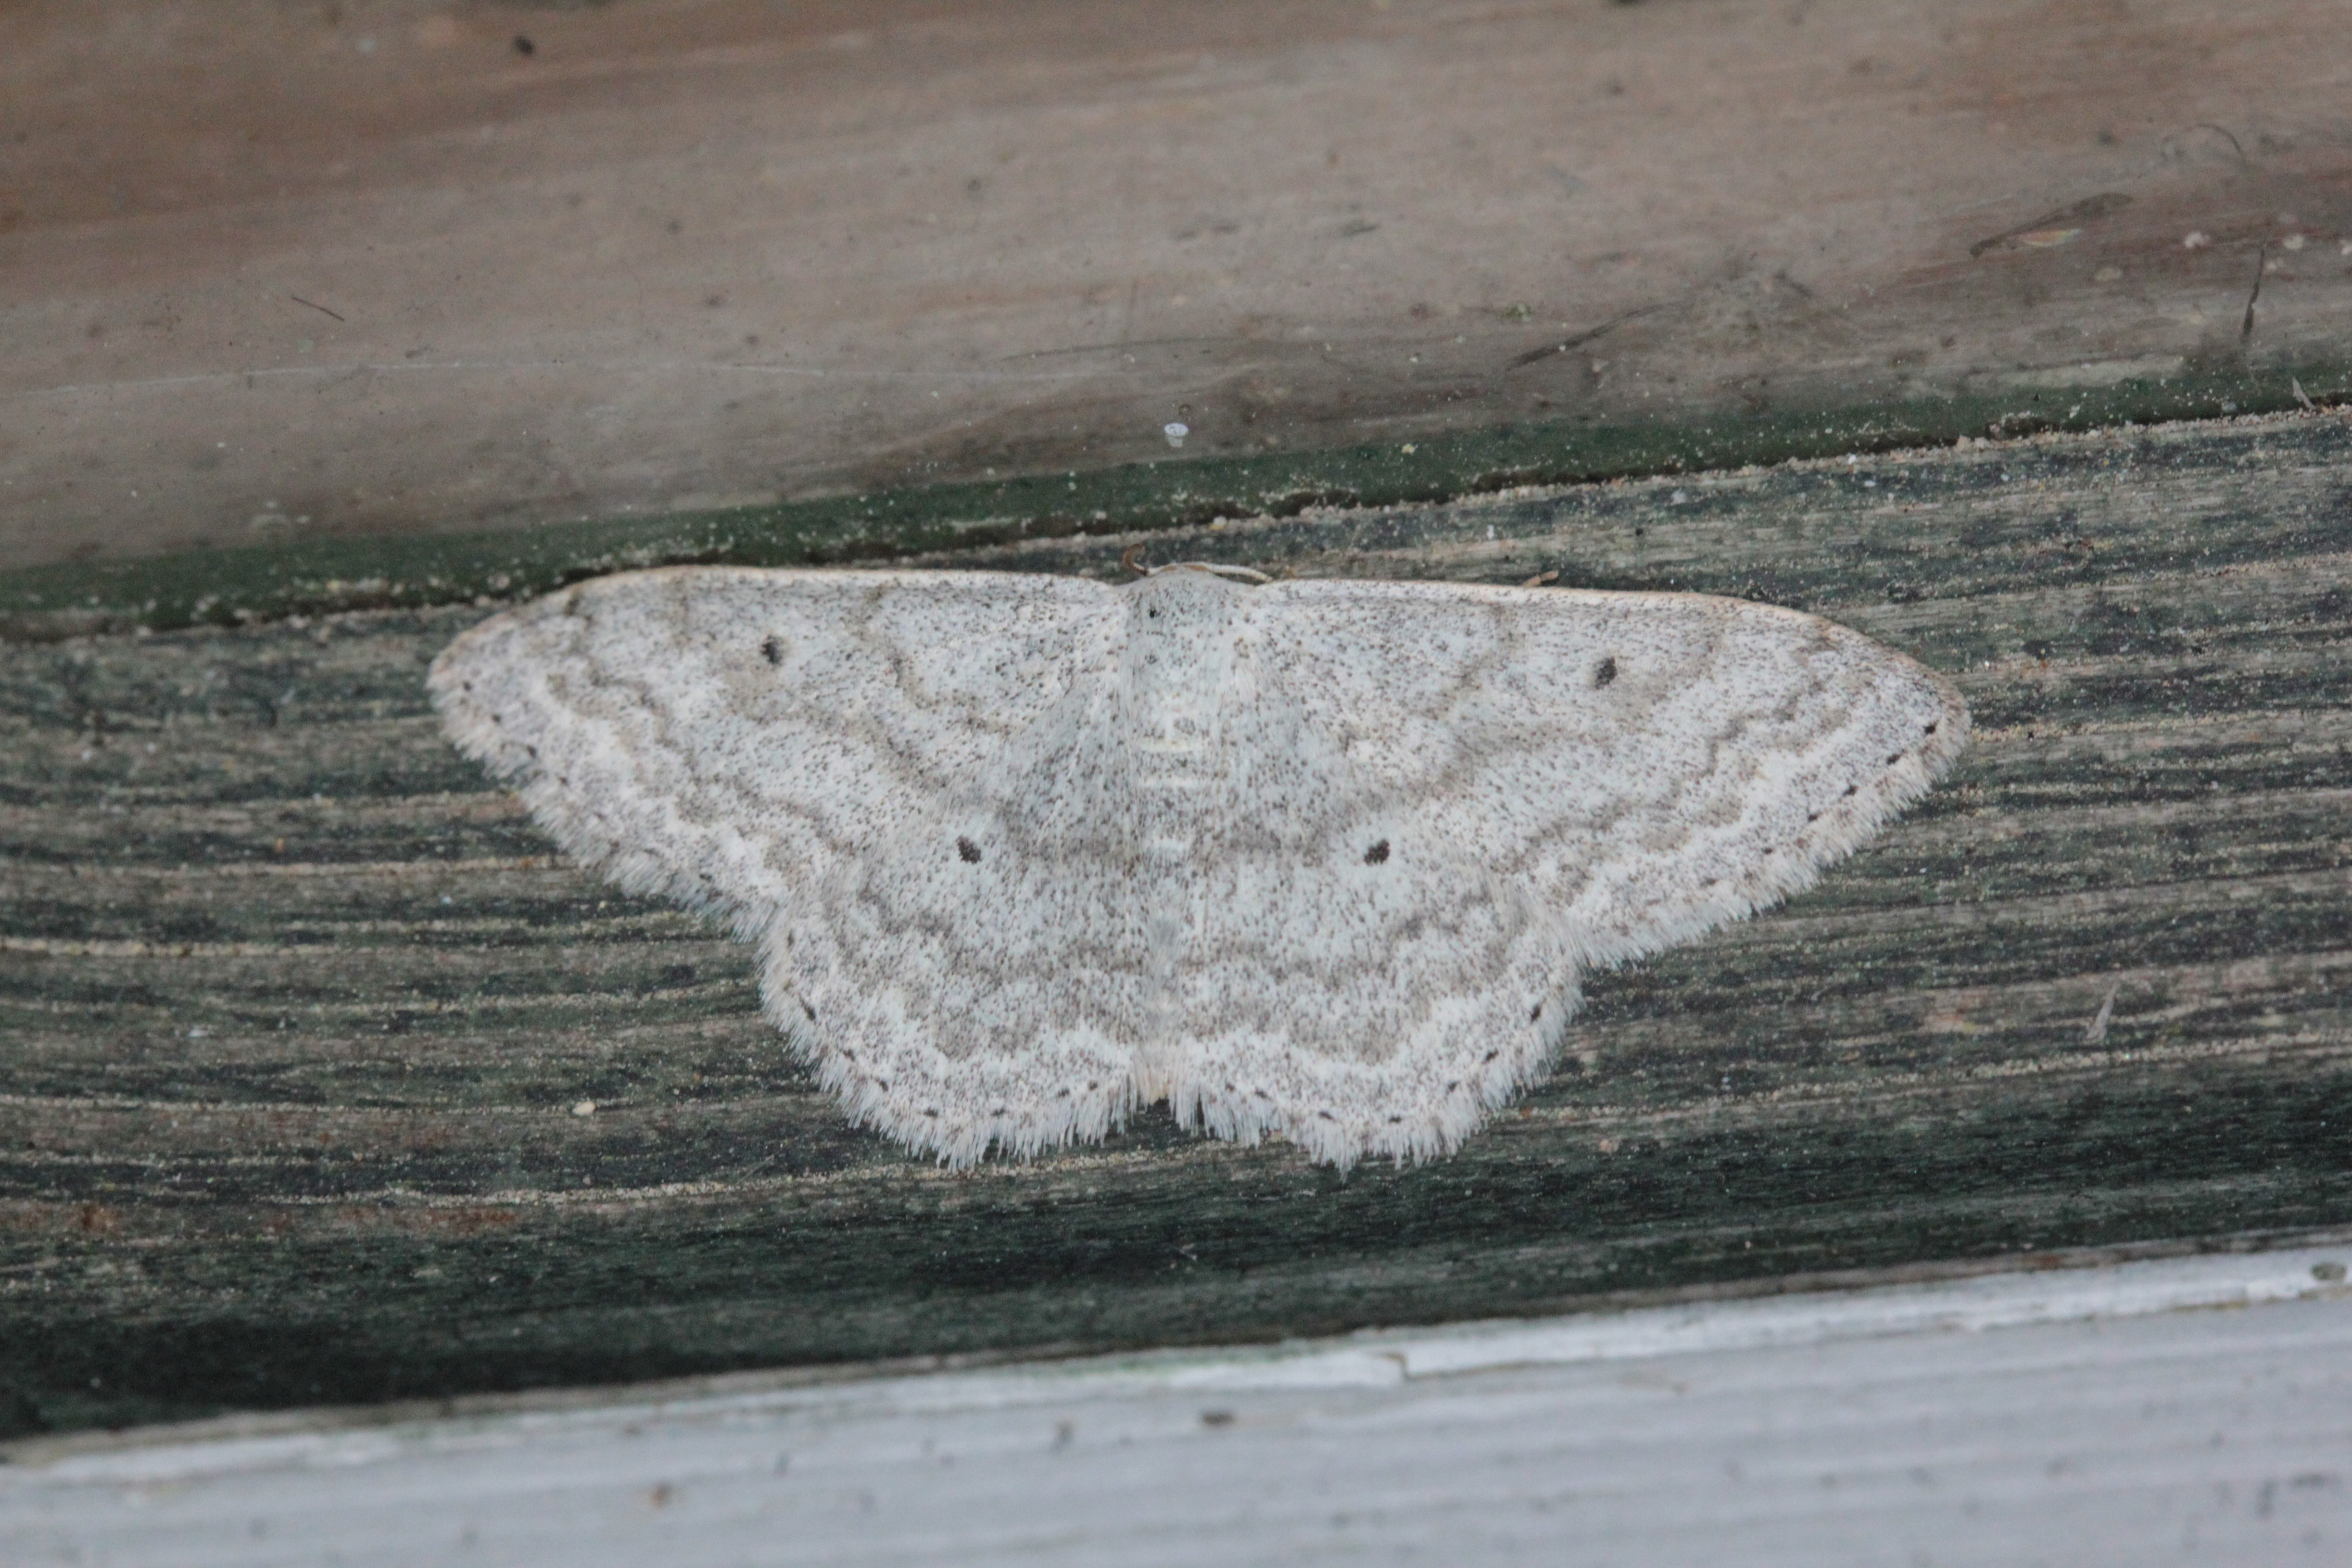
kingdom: Animalia
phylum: Arthropoda
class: Insecta
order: Lepidoptera
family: Geometridae
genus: Scopula
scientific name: Scopula incanata
